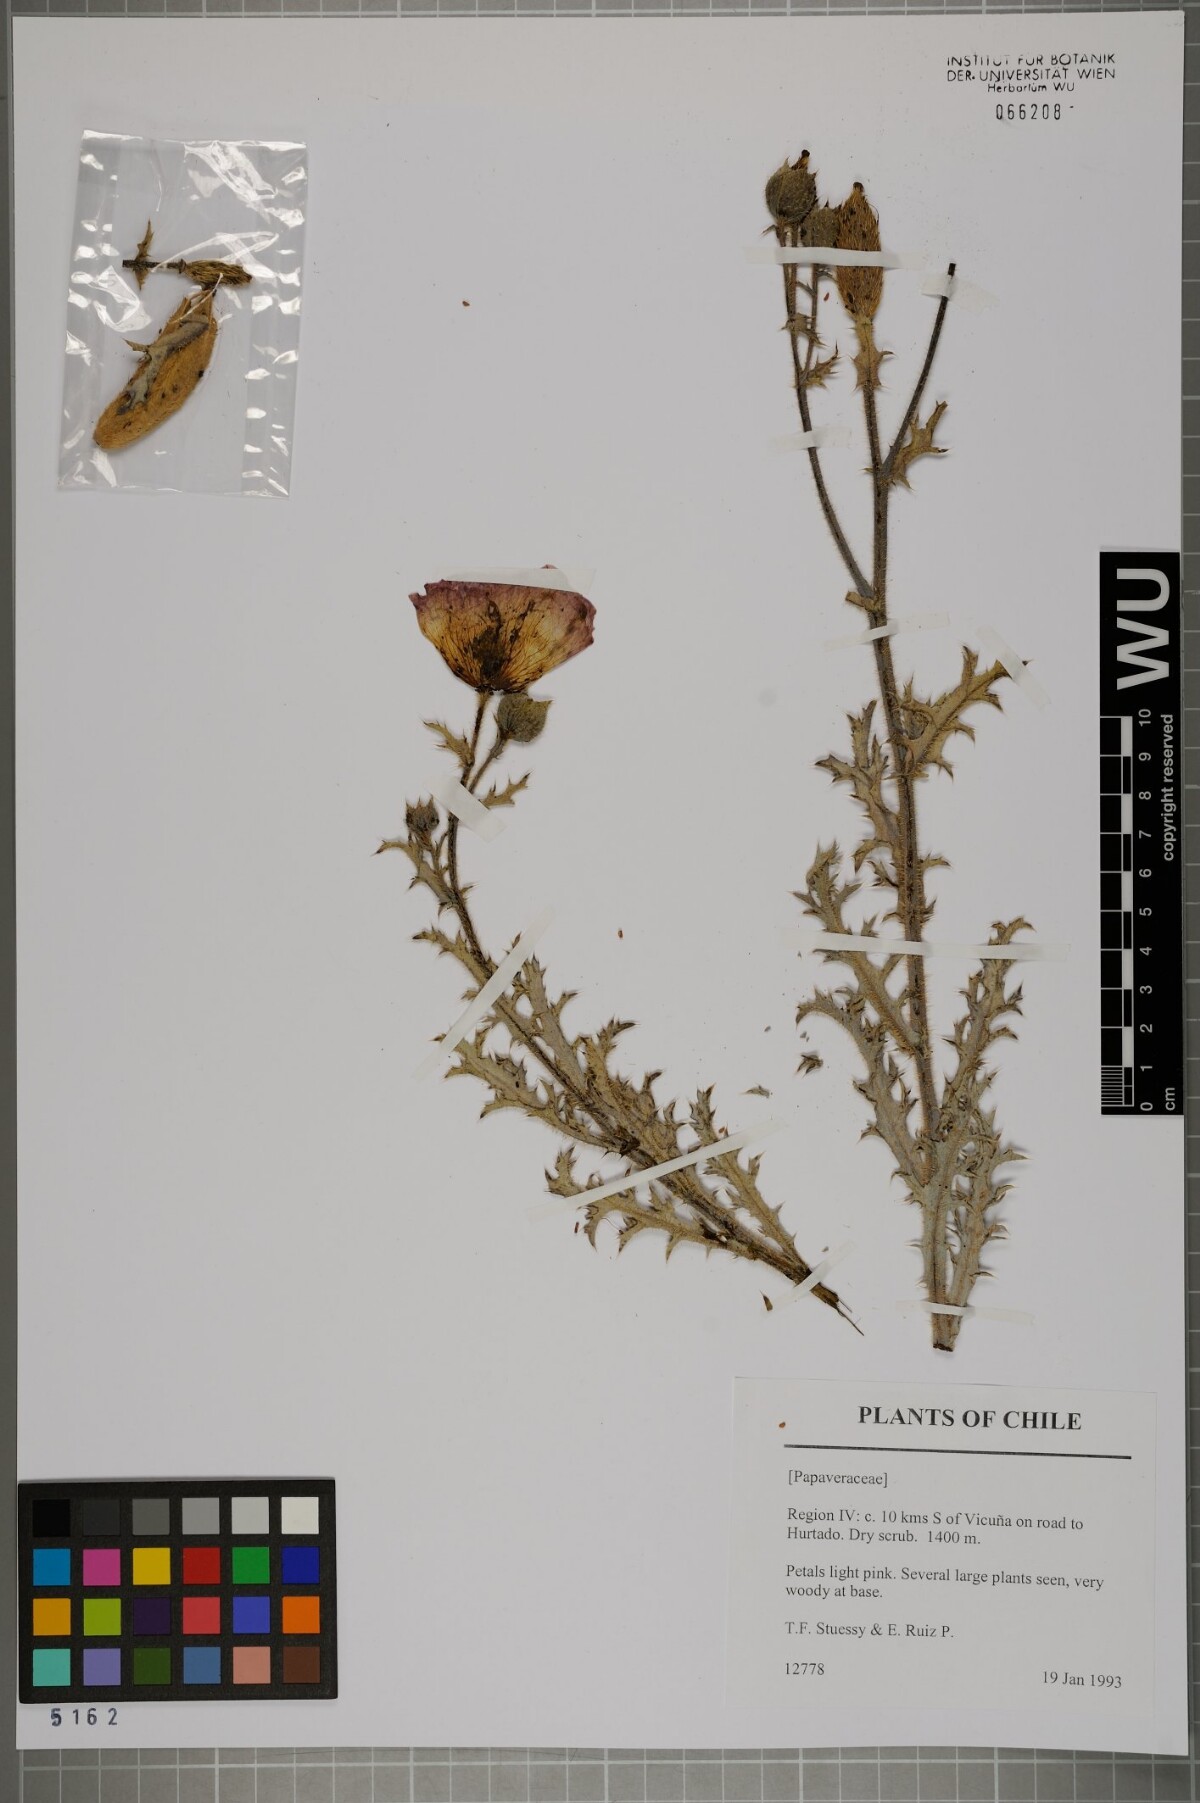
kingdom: Plantae
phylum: Tracheophyta
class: Magnoliopsida
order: Ranunculales
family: Papaveraceae
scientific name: Papaveraceae
